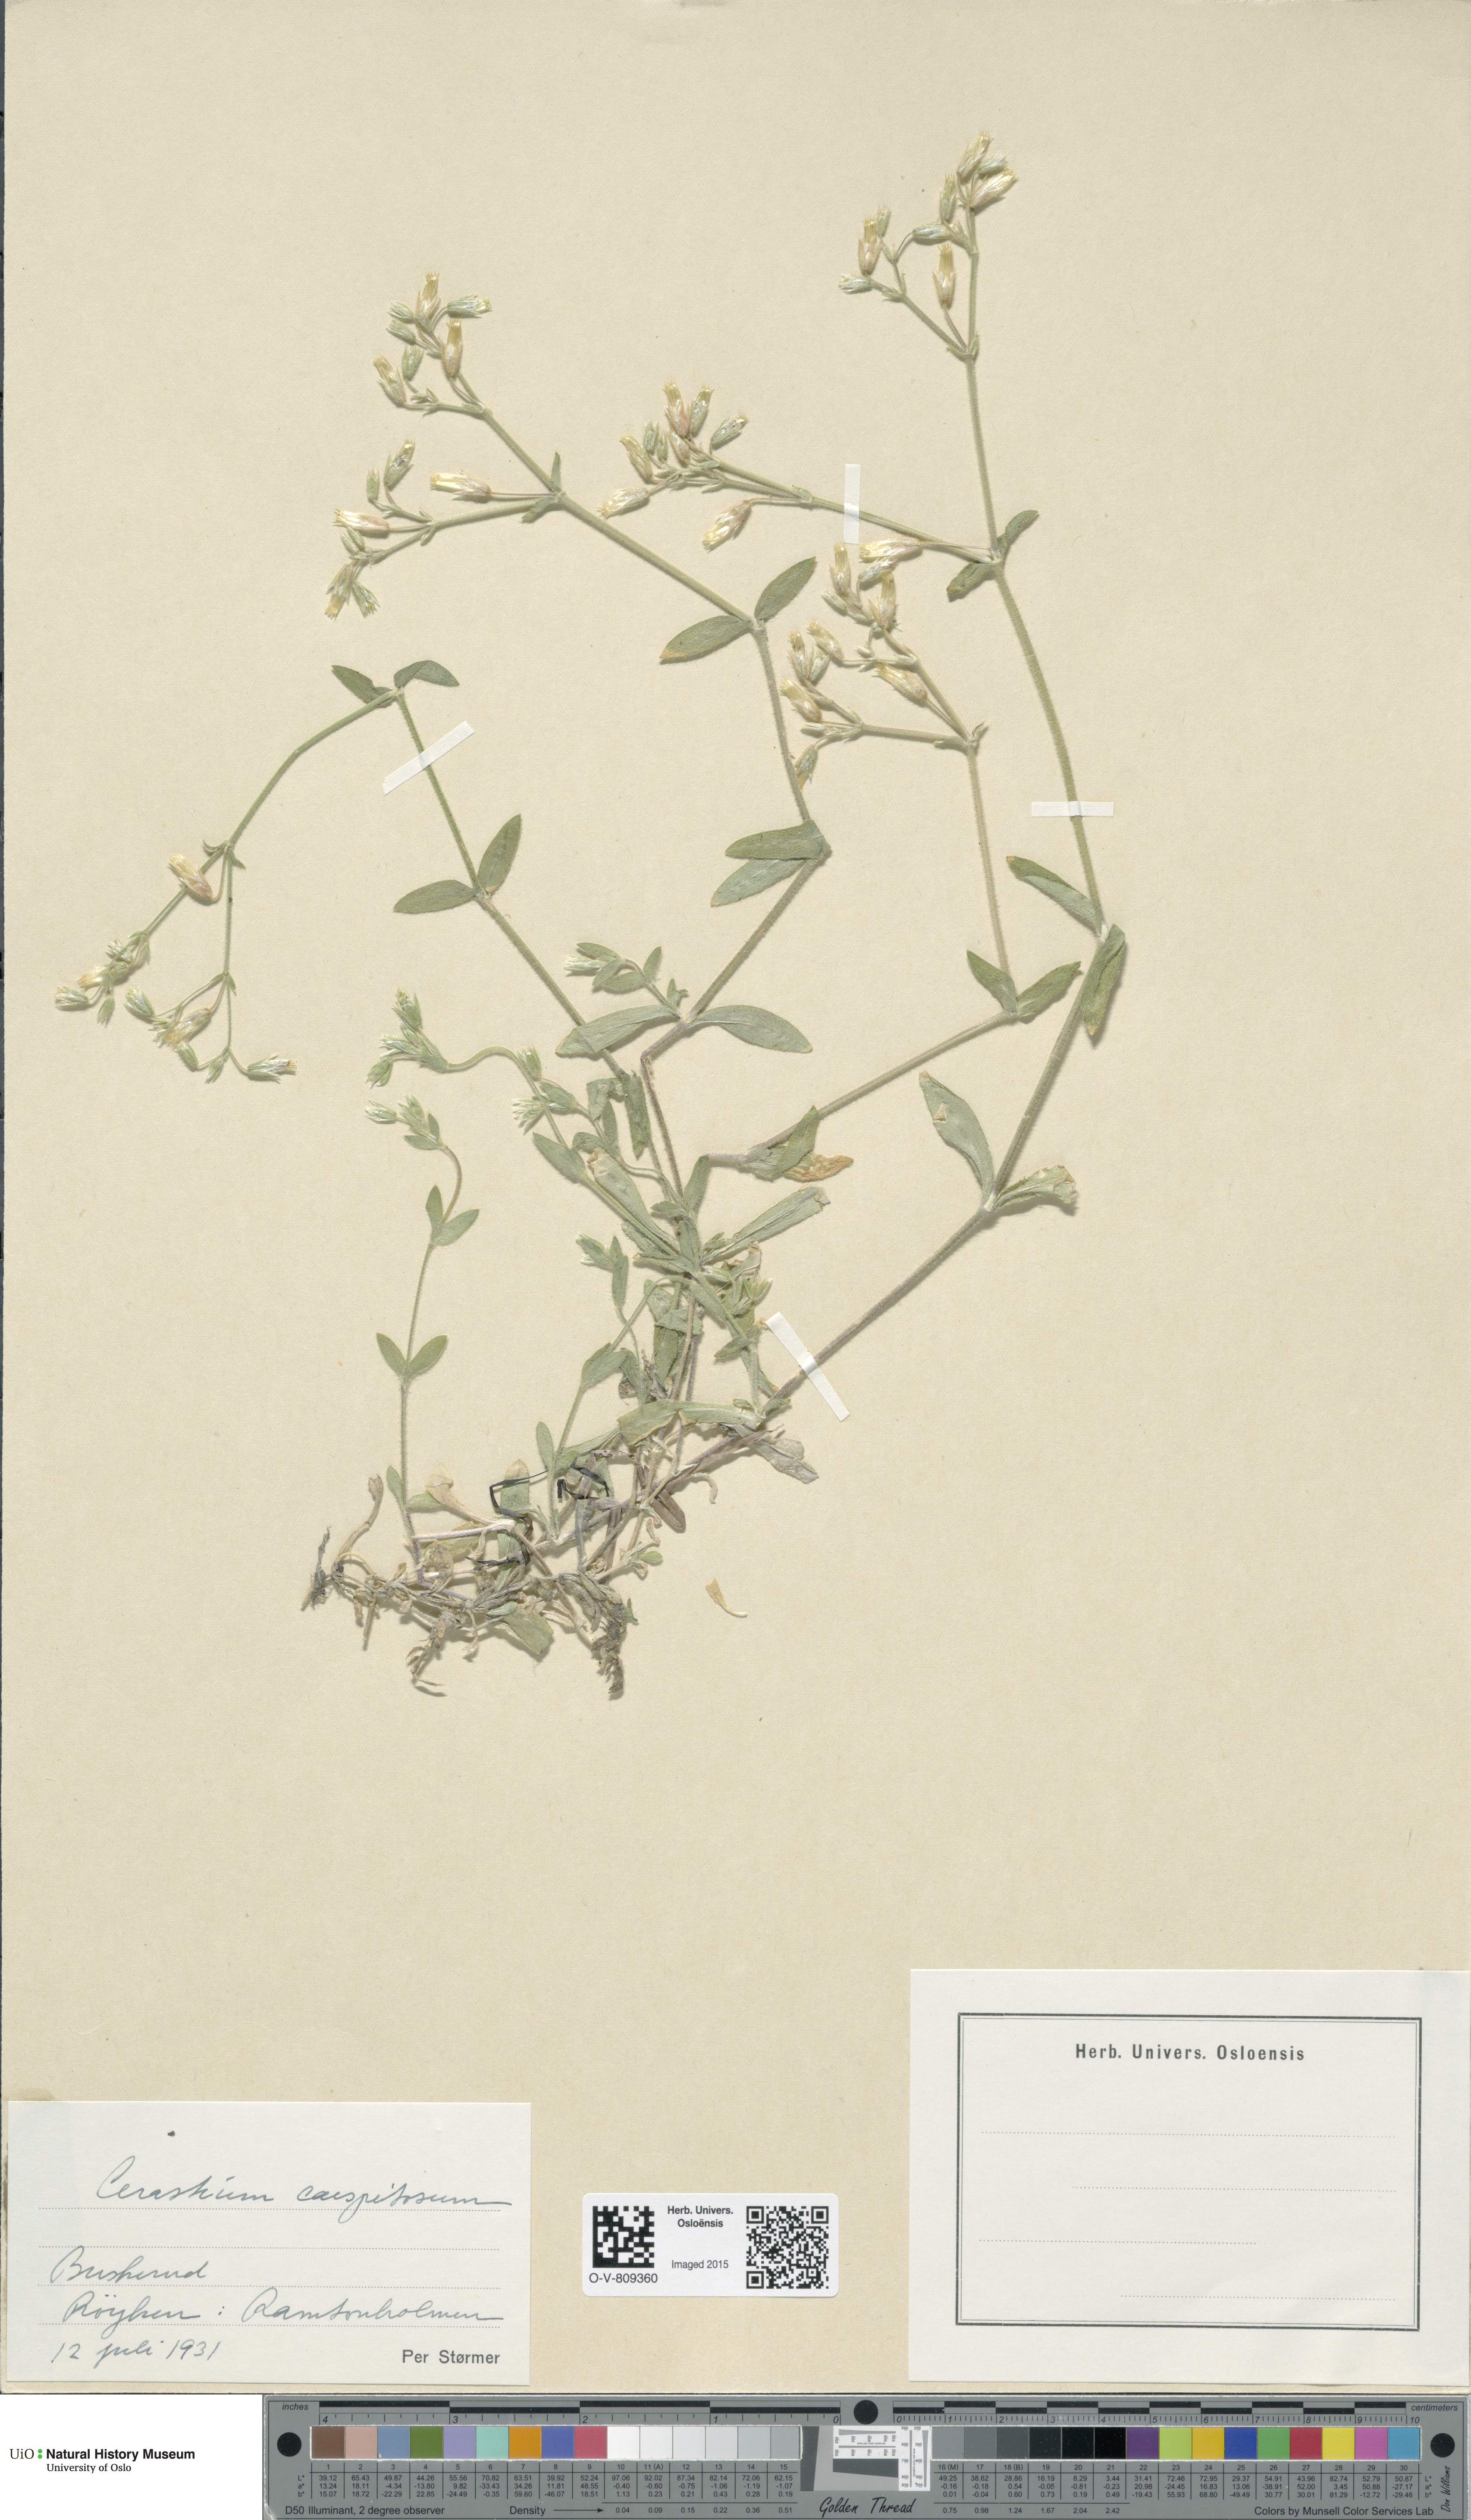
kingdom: Plantae
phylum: Tracheophyta
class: Magnoliopsida
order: Caryophyllales
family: Caryophyllaceae
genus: Cerastium
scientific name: Cerastium holosteoides
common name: Big chickweed
